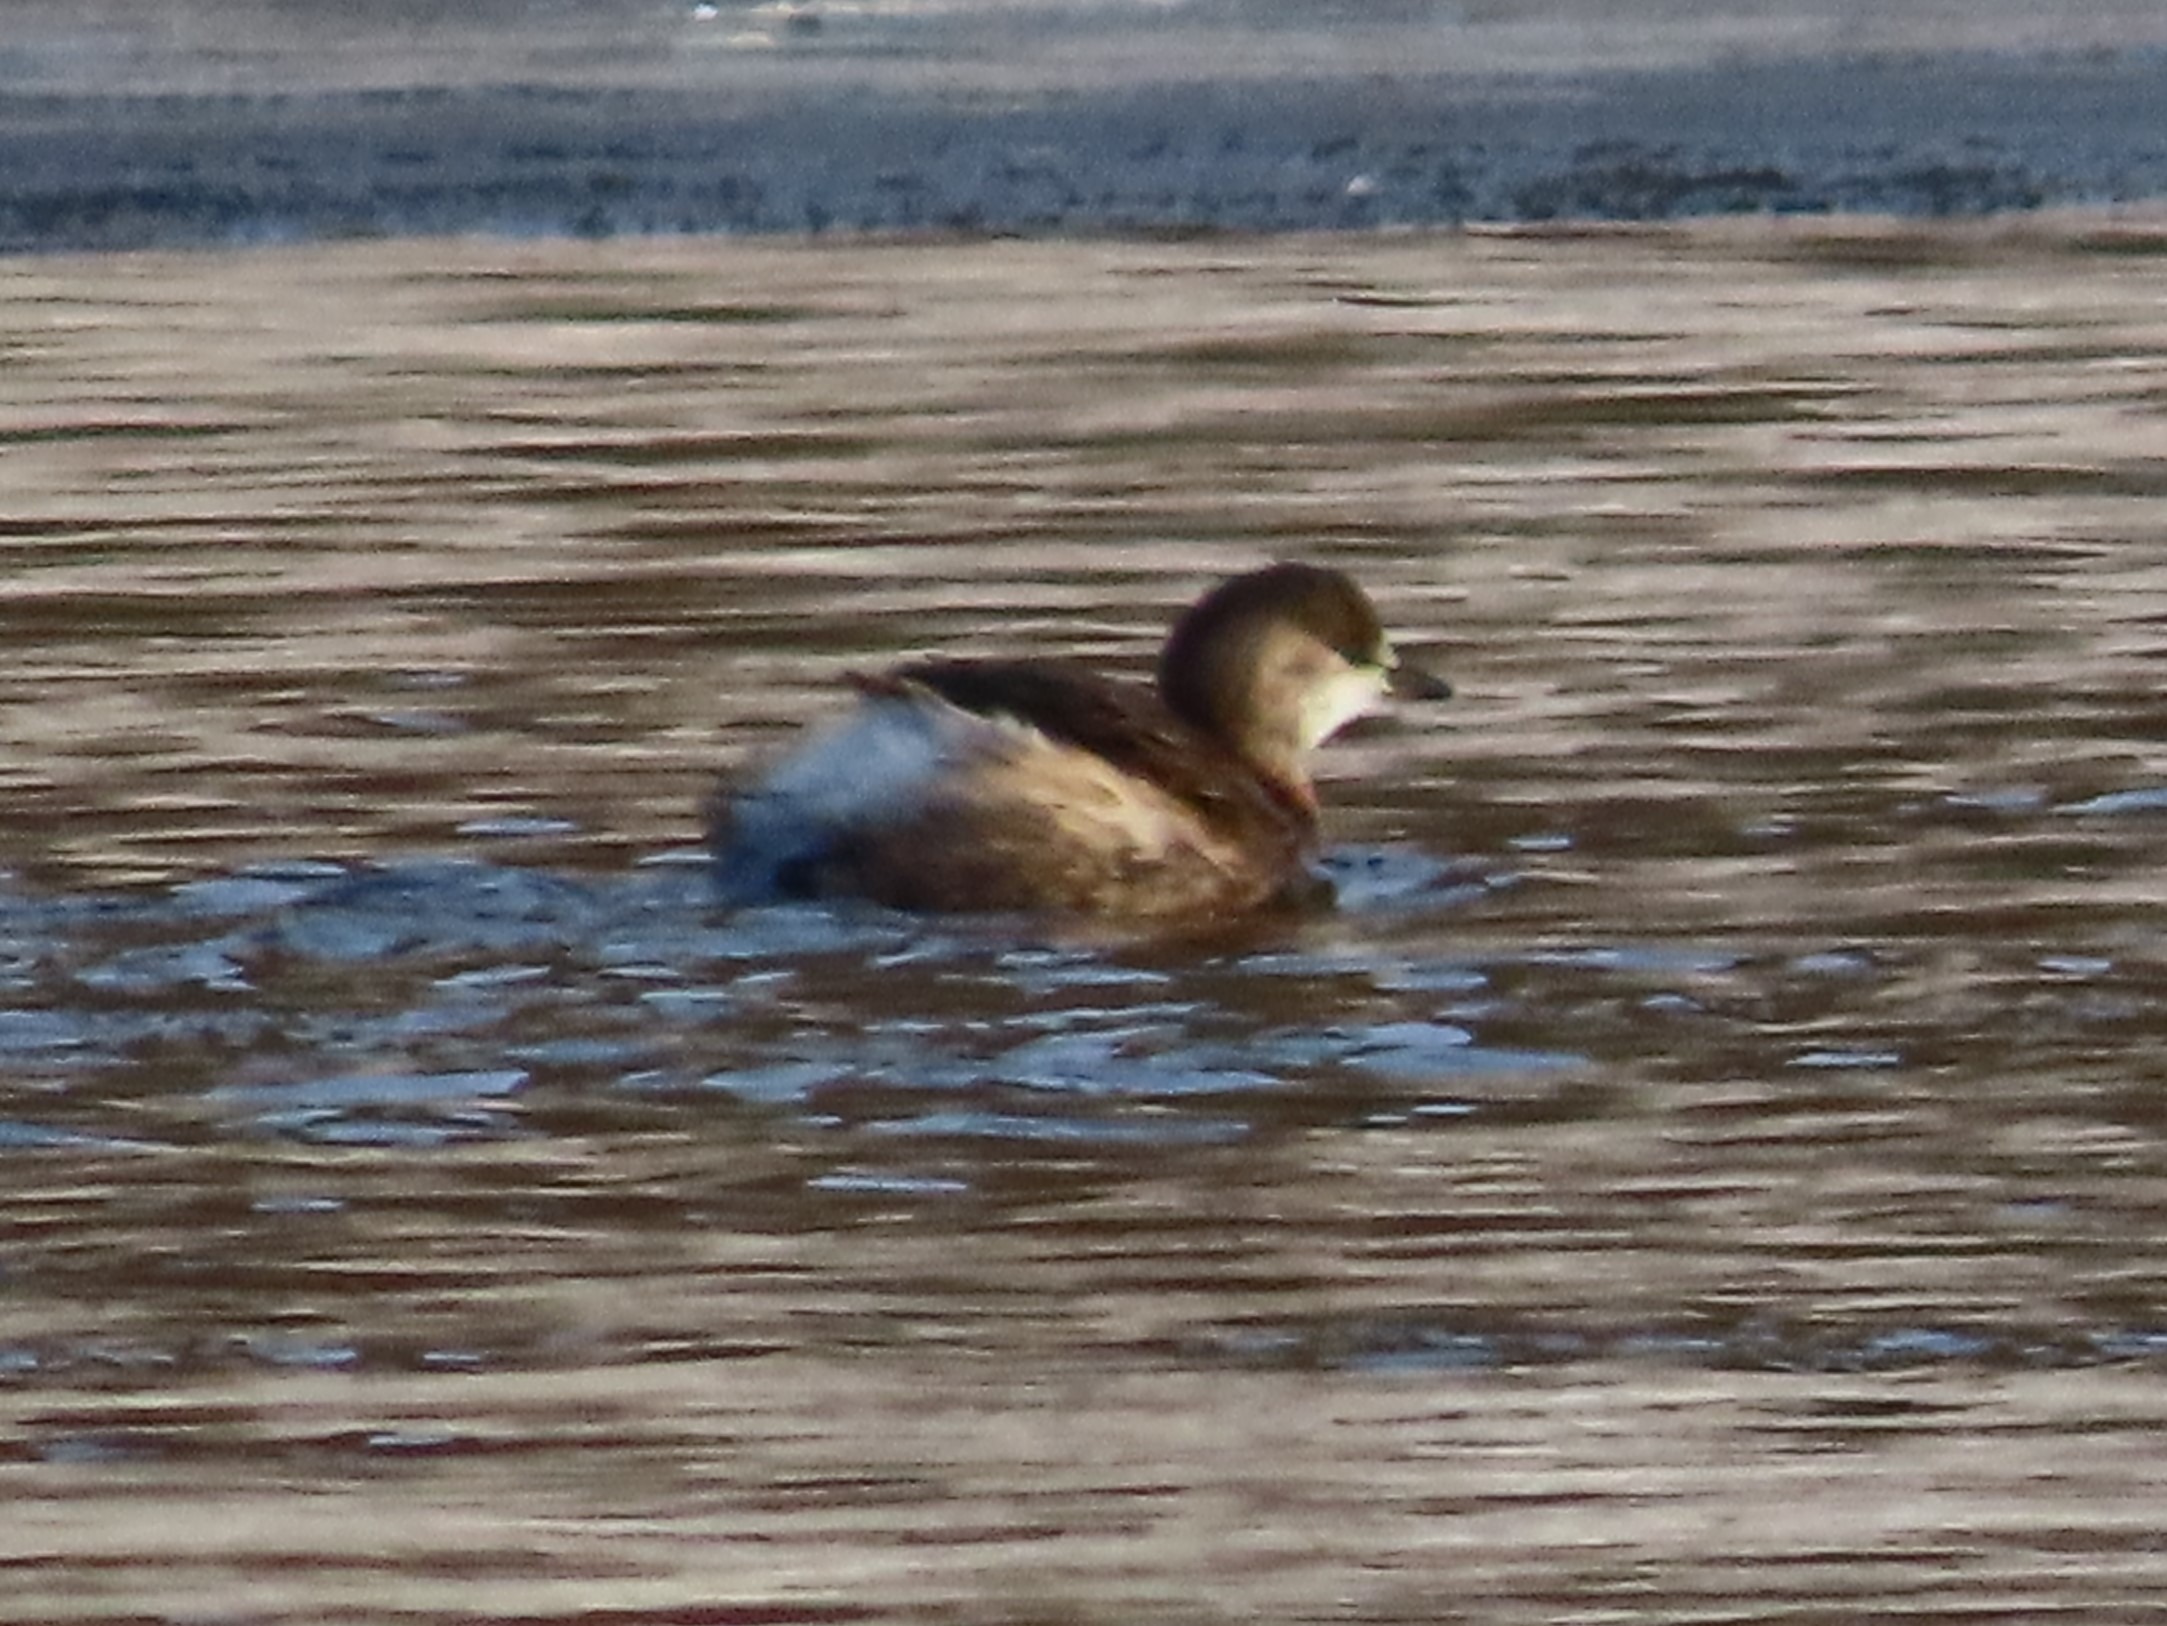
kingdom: Animalia
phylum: Chordata
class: Aves
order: Podicipediformes
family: Podicipedidae
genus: Tachybaptus
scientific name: Tachybaptus ruficollis
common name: Lille lappedykker
